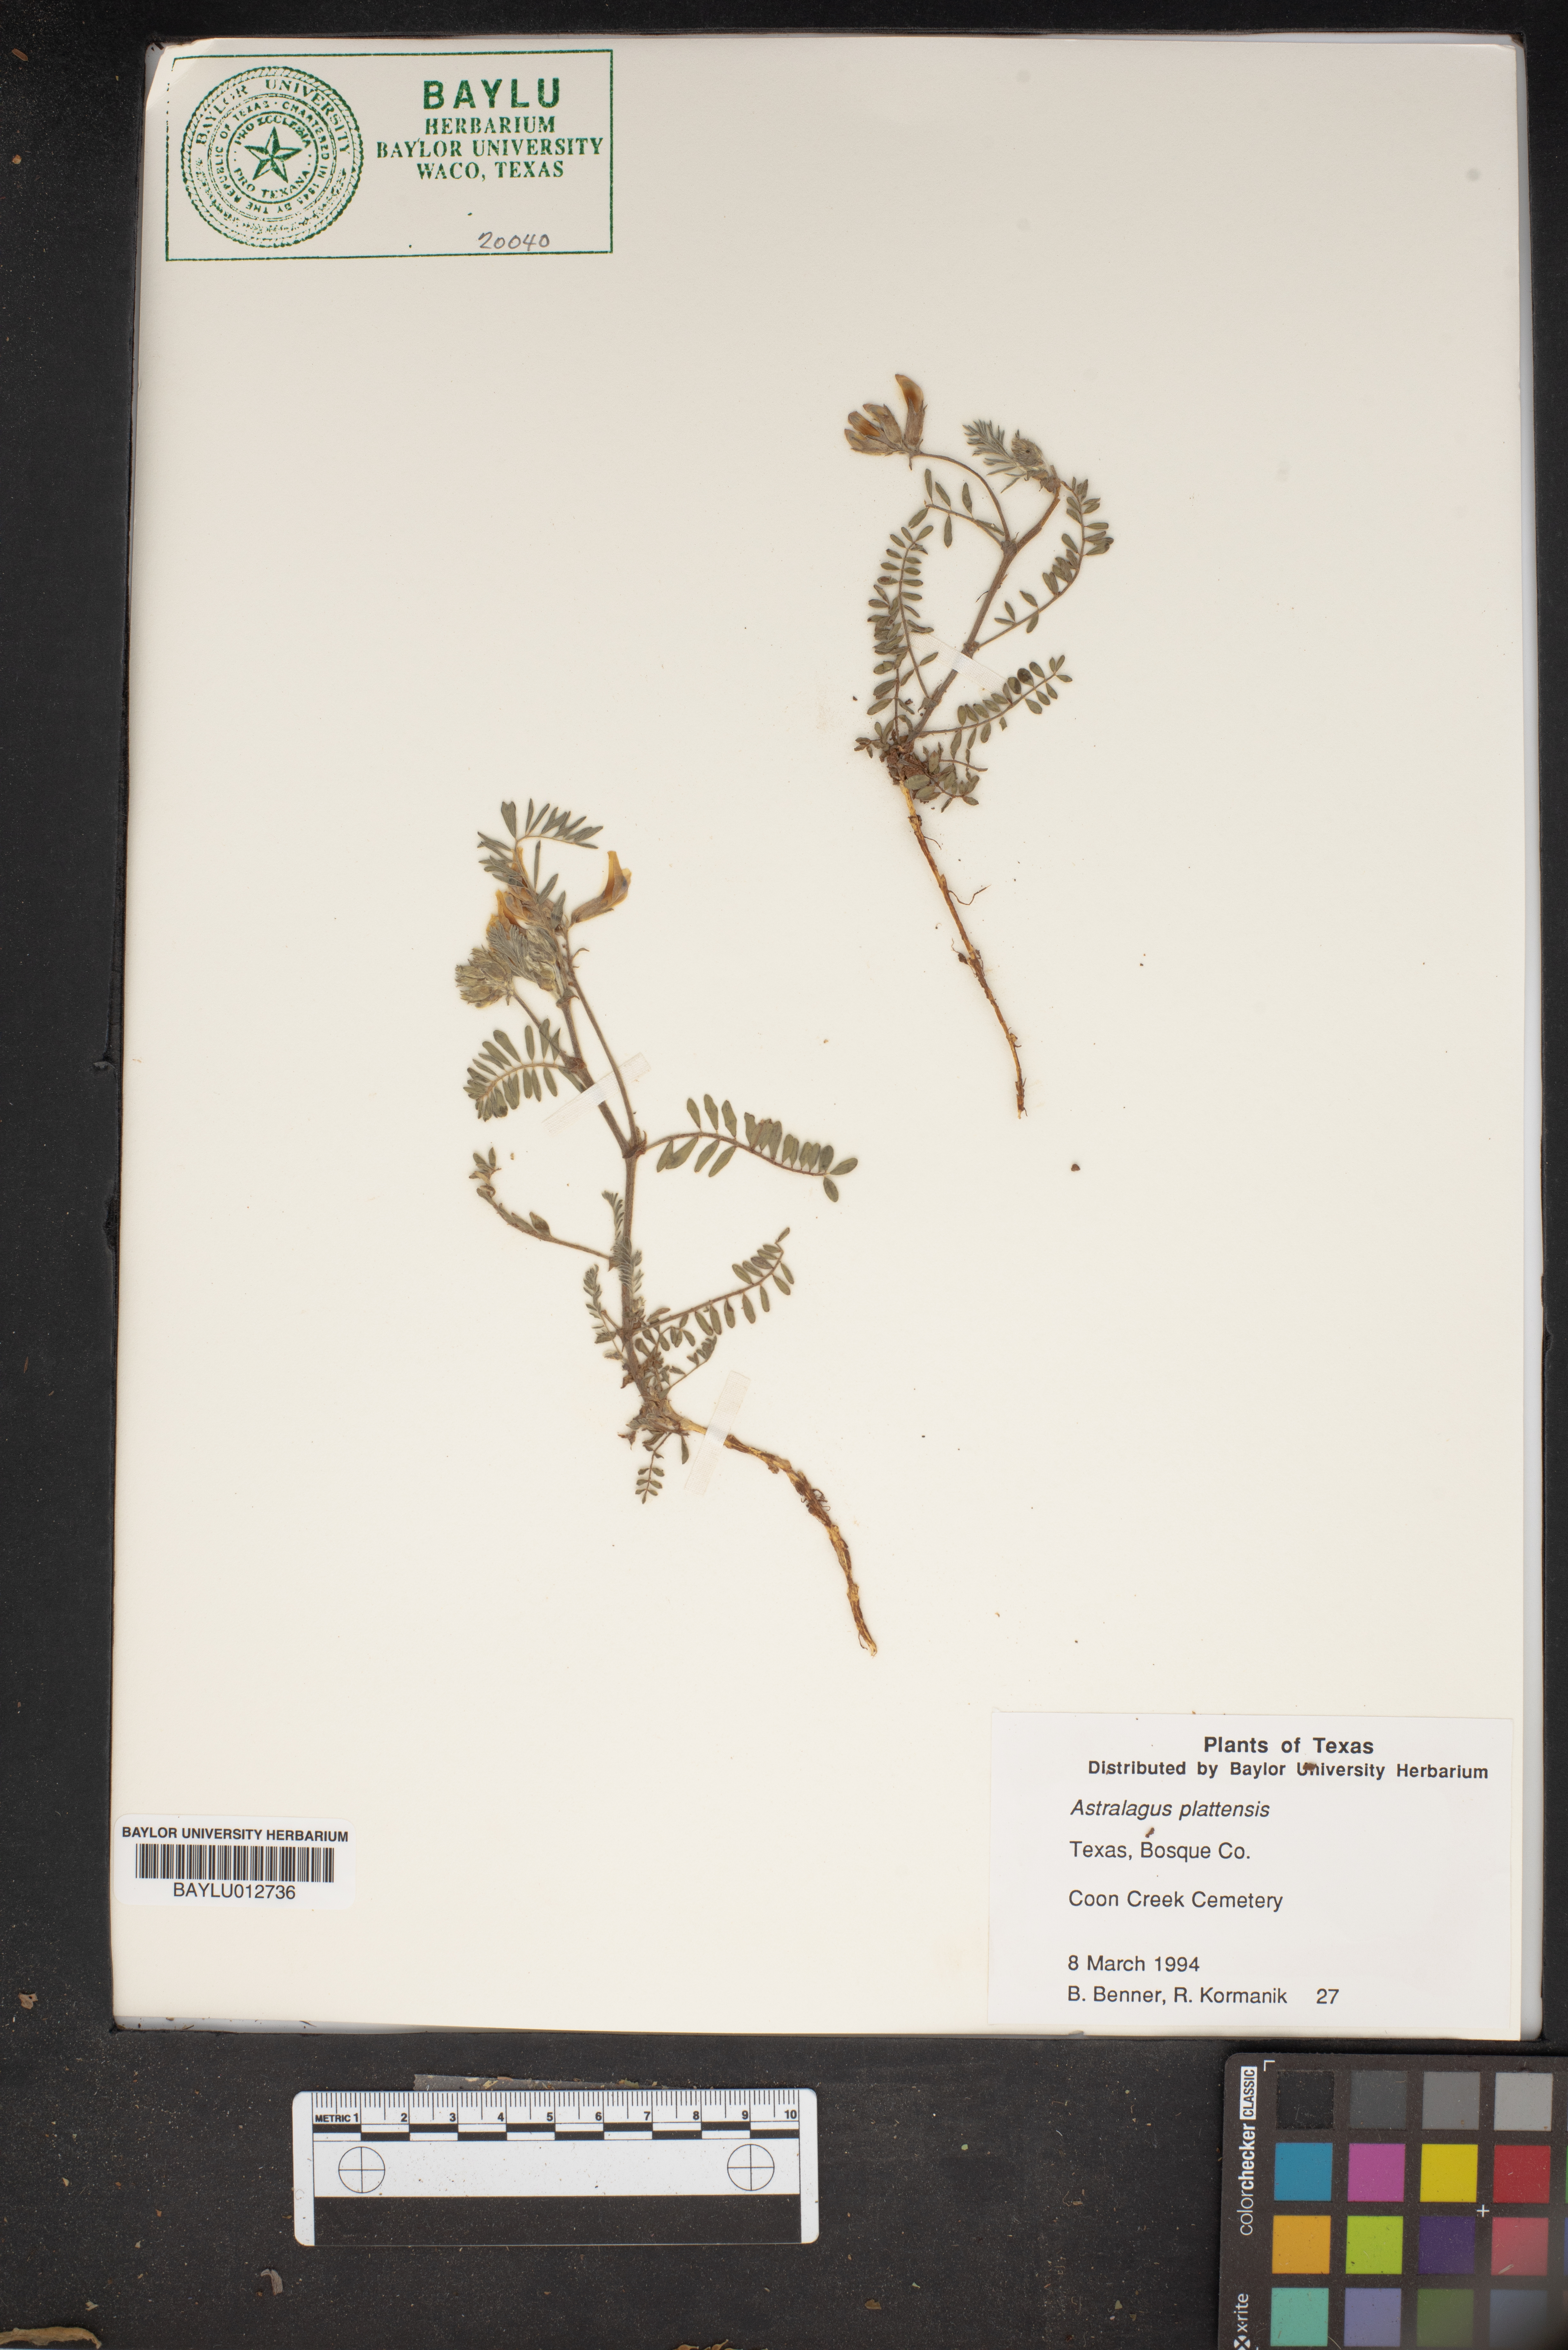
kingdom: Plantae
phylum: Tracheophyta
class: Magnoliopsida
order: Fabales
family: Fabaceae
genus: Astragalus
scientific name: Astragalus plattensis
